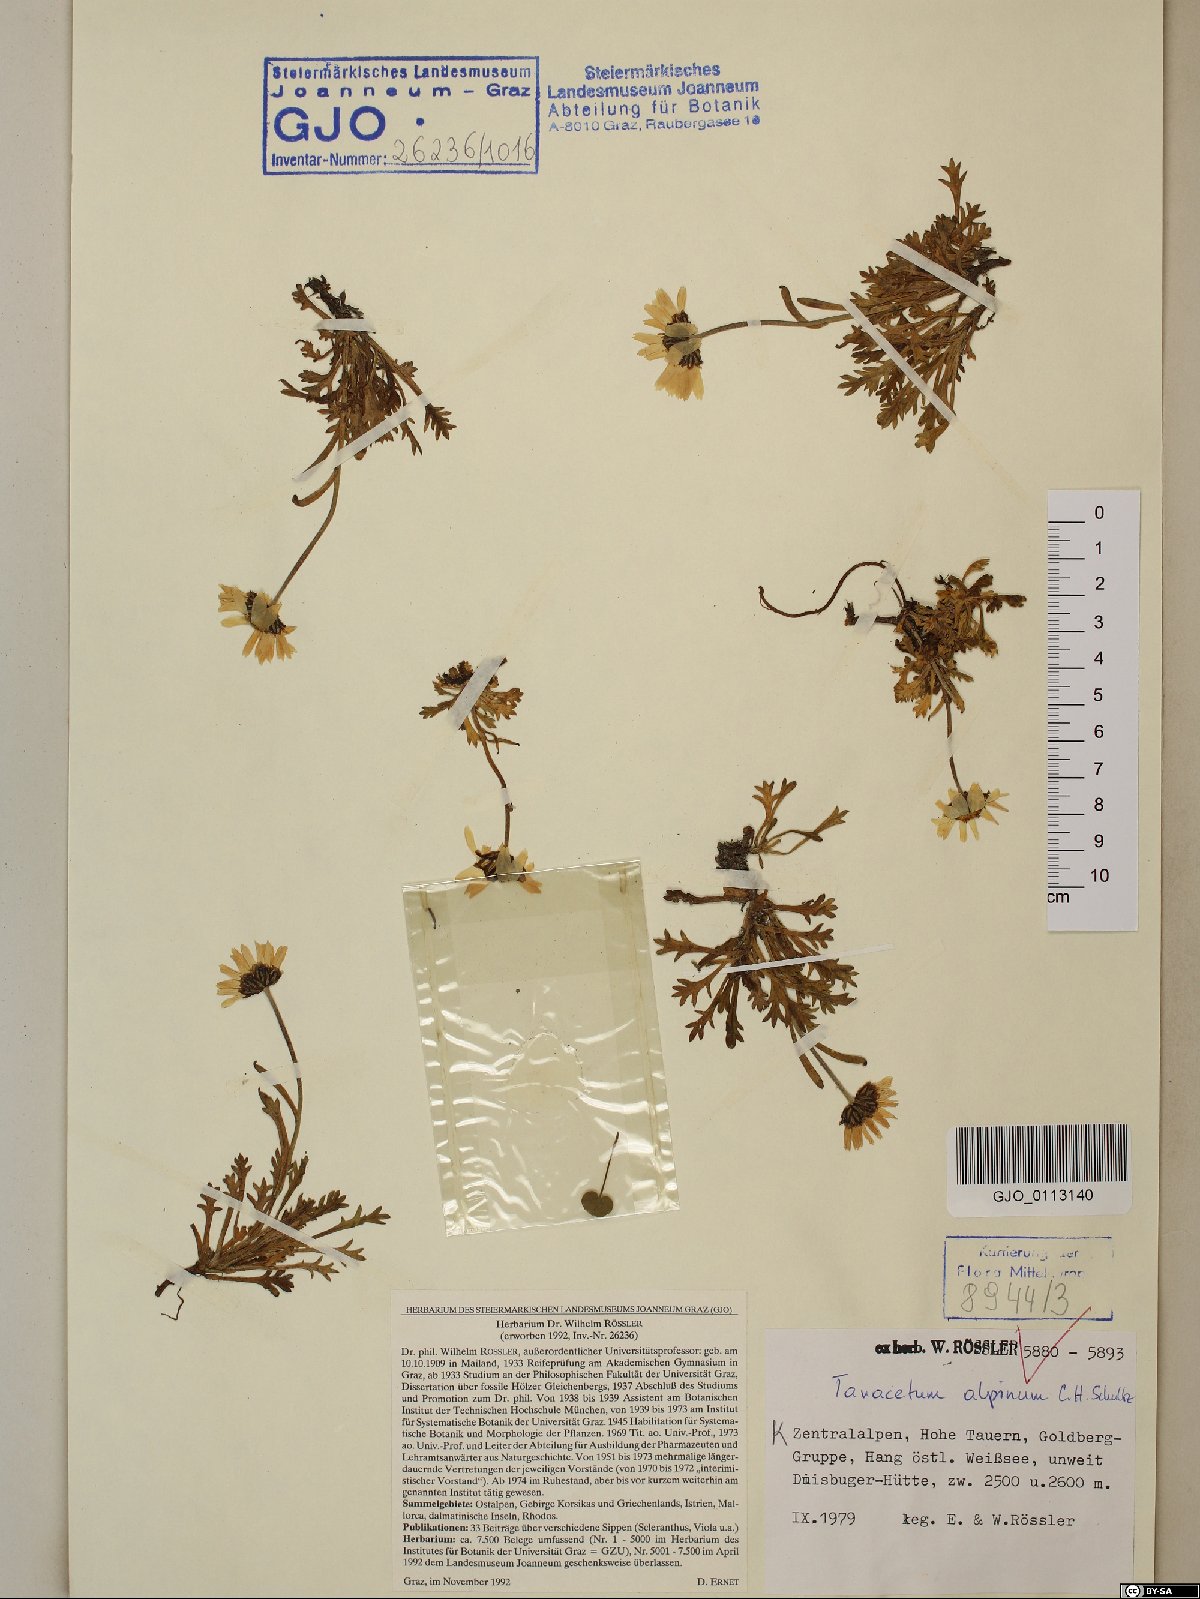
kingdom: Plantae
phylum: Tracheophyta
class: Magnoliopsida
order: Asterales
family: Asteraceae
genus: Leucanthemopsis
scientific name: Leucanthemopsis alpina
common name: Alpine moon daisy
